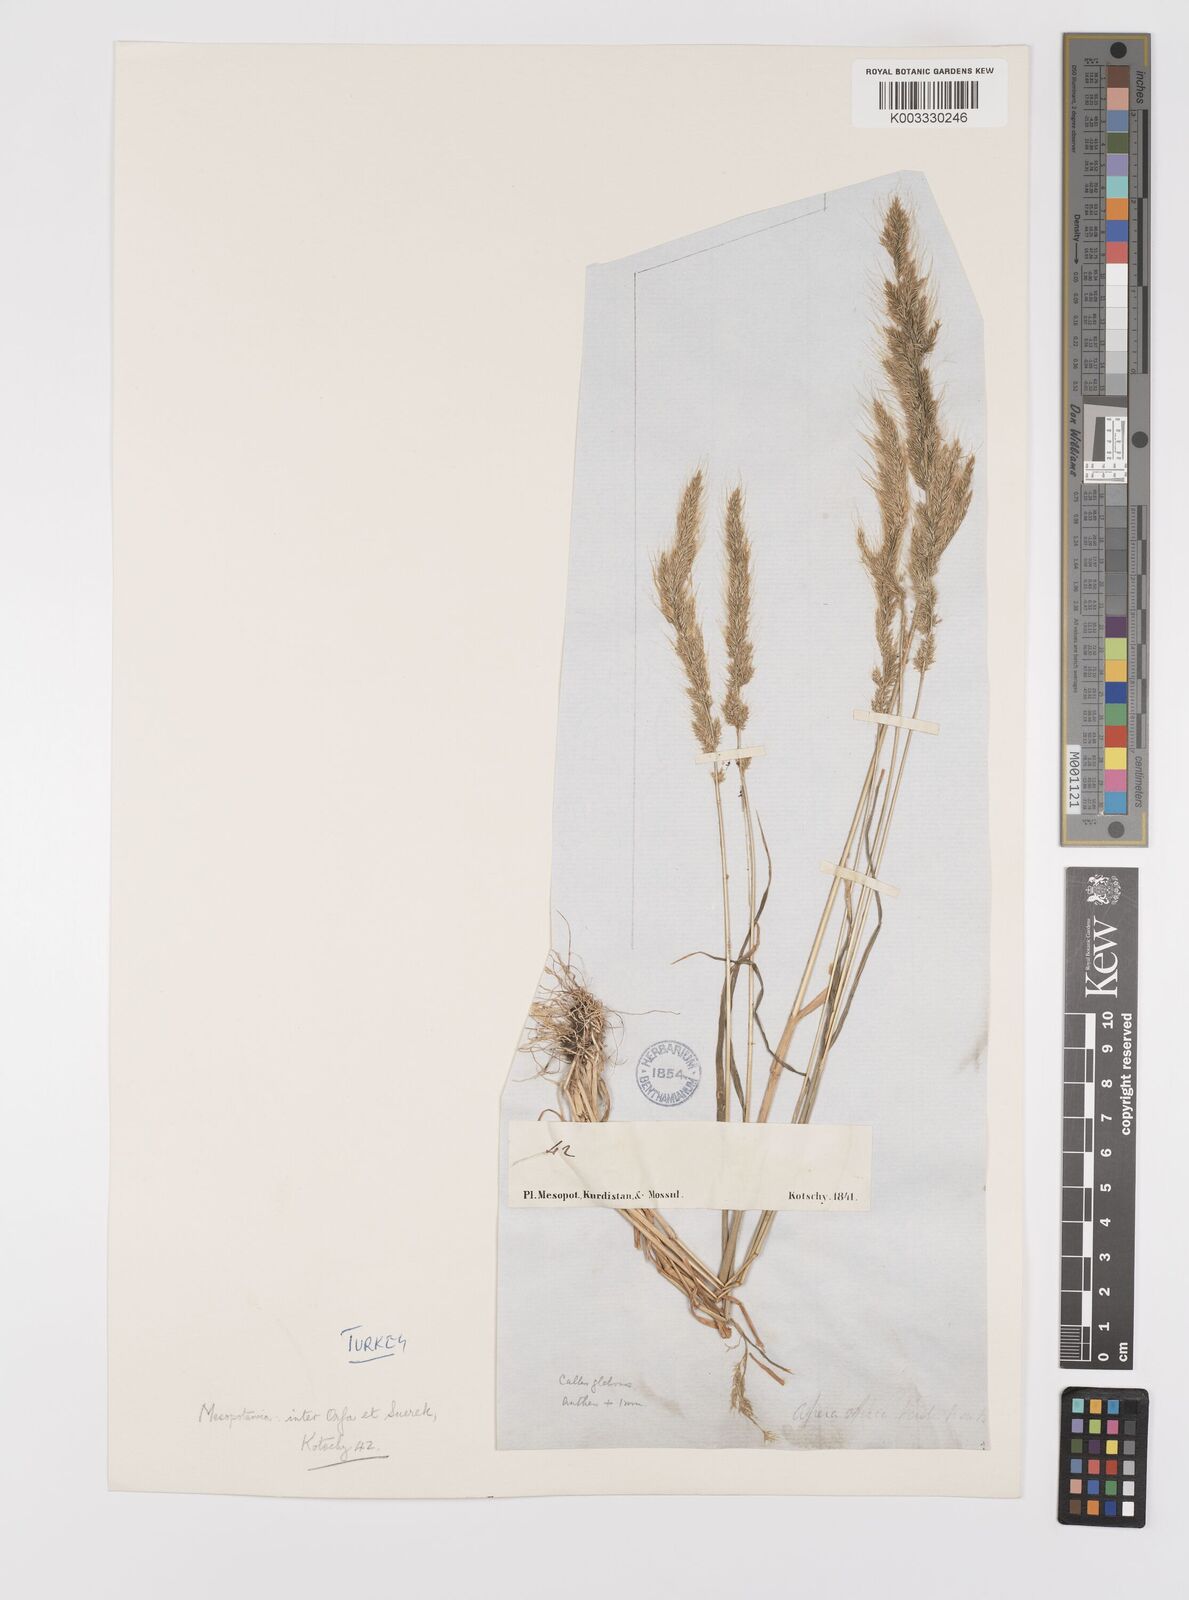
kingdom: Plantae
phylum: Tracheophyta
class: Liliopsida
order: Poales
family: Poaceae
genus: Apera
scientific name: Apera intermedia
